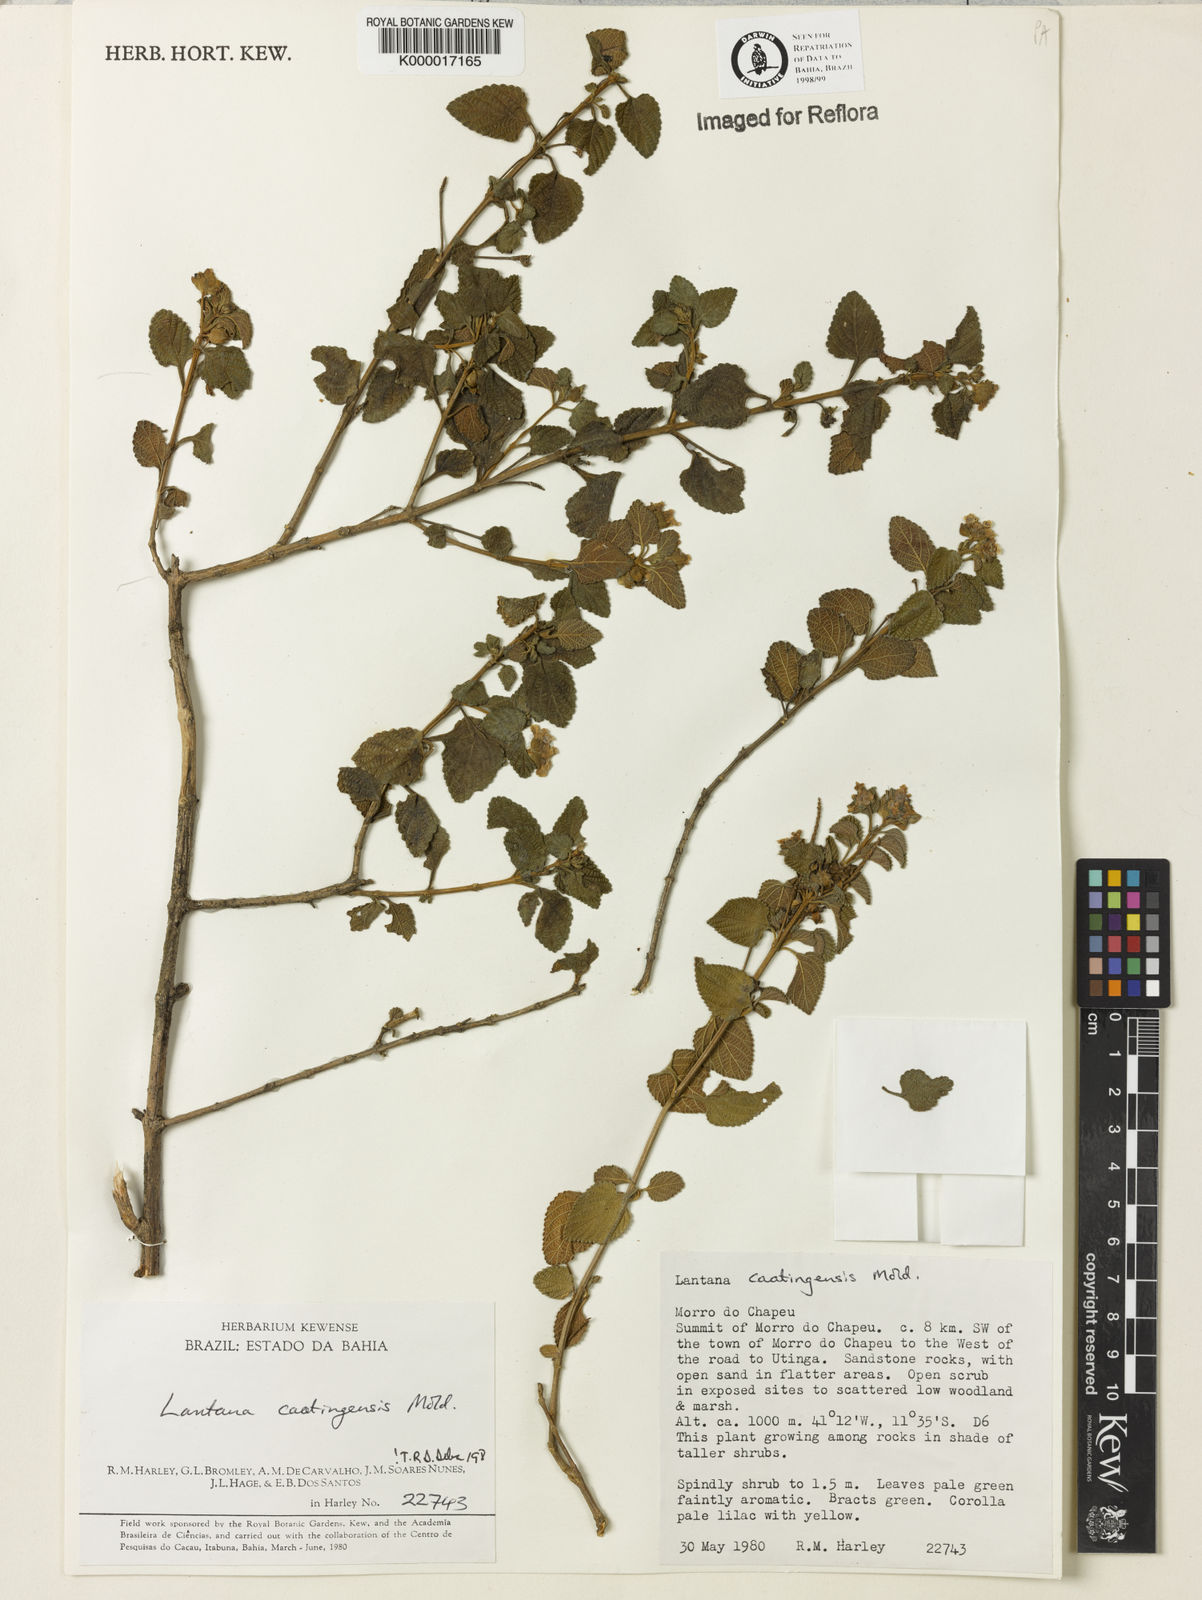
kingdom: Plantae
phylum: Tracheophyta
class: Magnoliopsida
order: Lamiales
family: Verbenaceae
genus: Lantana
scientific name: Lantana caatingensis
